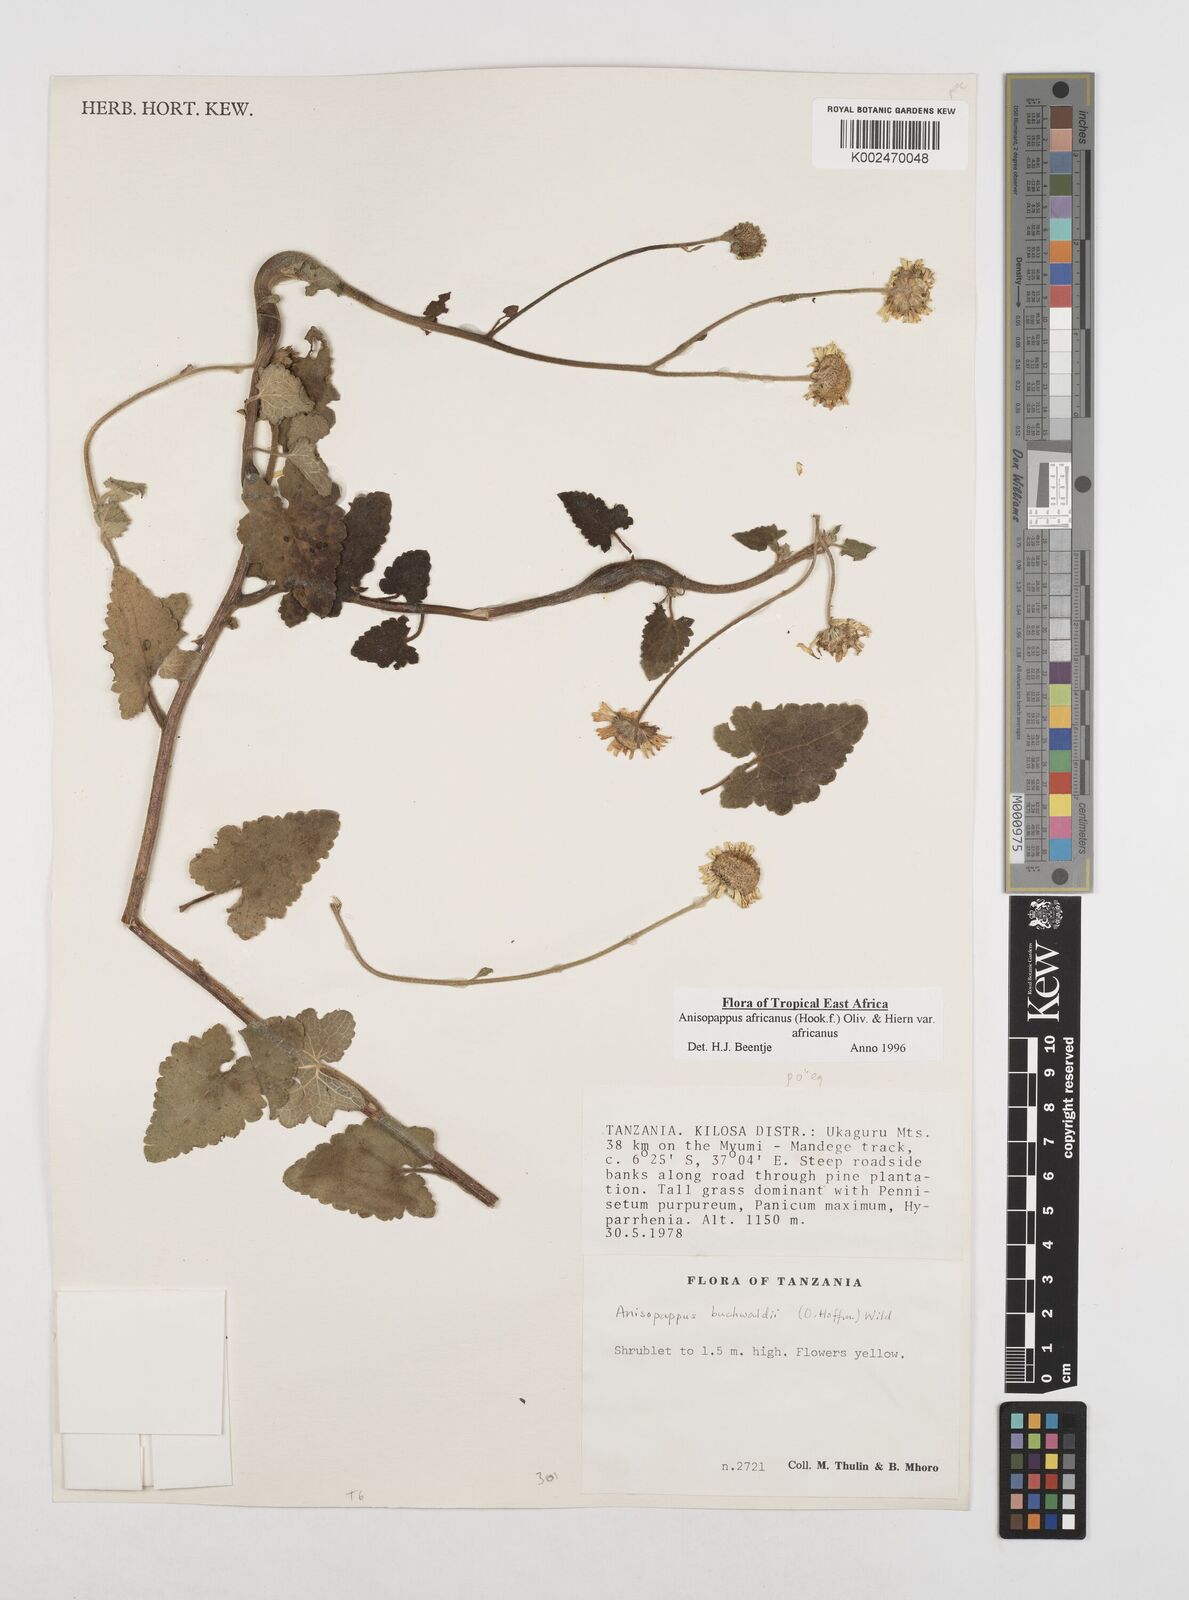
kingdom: Plantae
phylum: Tracheophyta
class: Magnoliopsida
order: Asterales
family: Asteraceae
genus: Anisopappus
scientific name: Anisopappus buchwaldii
